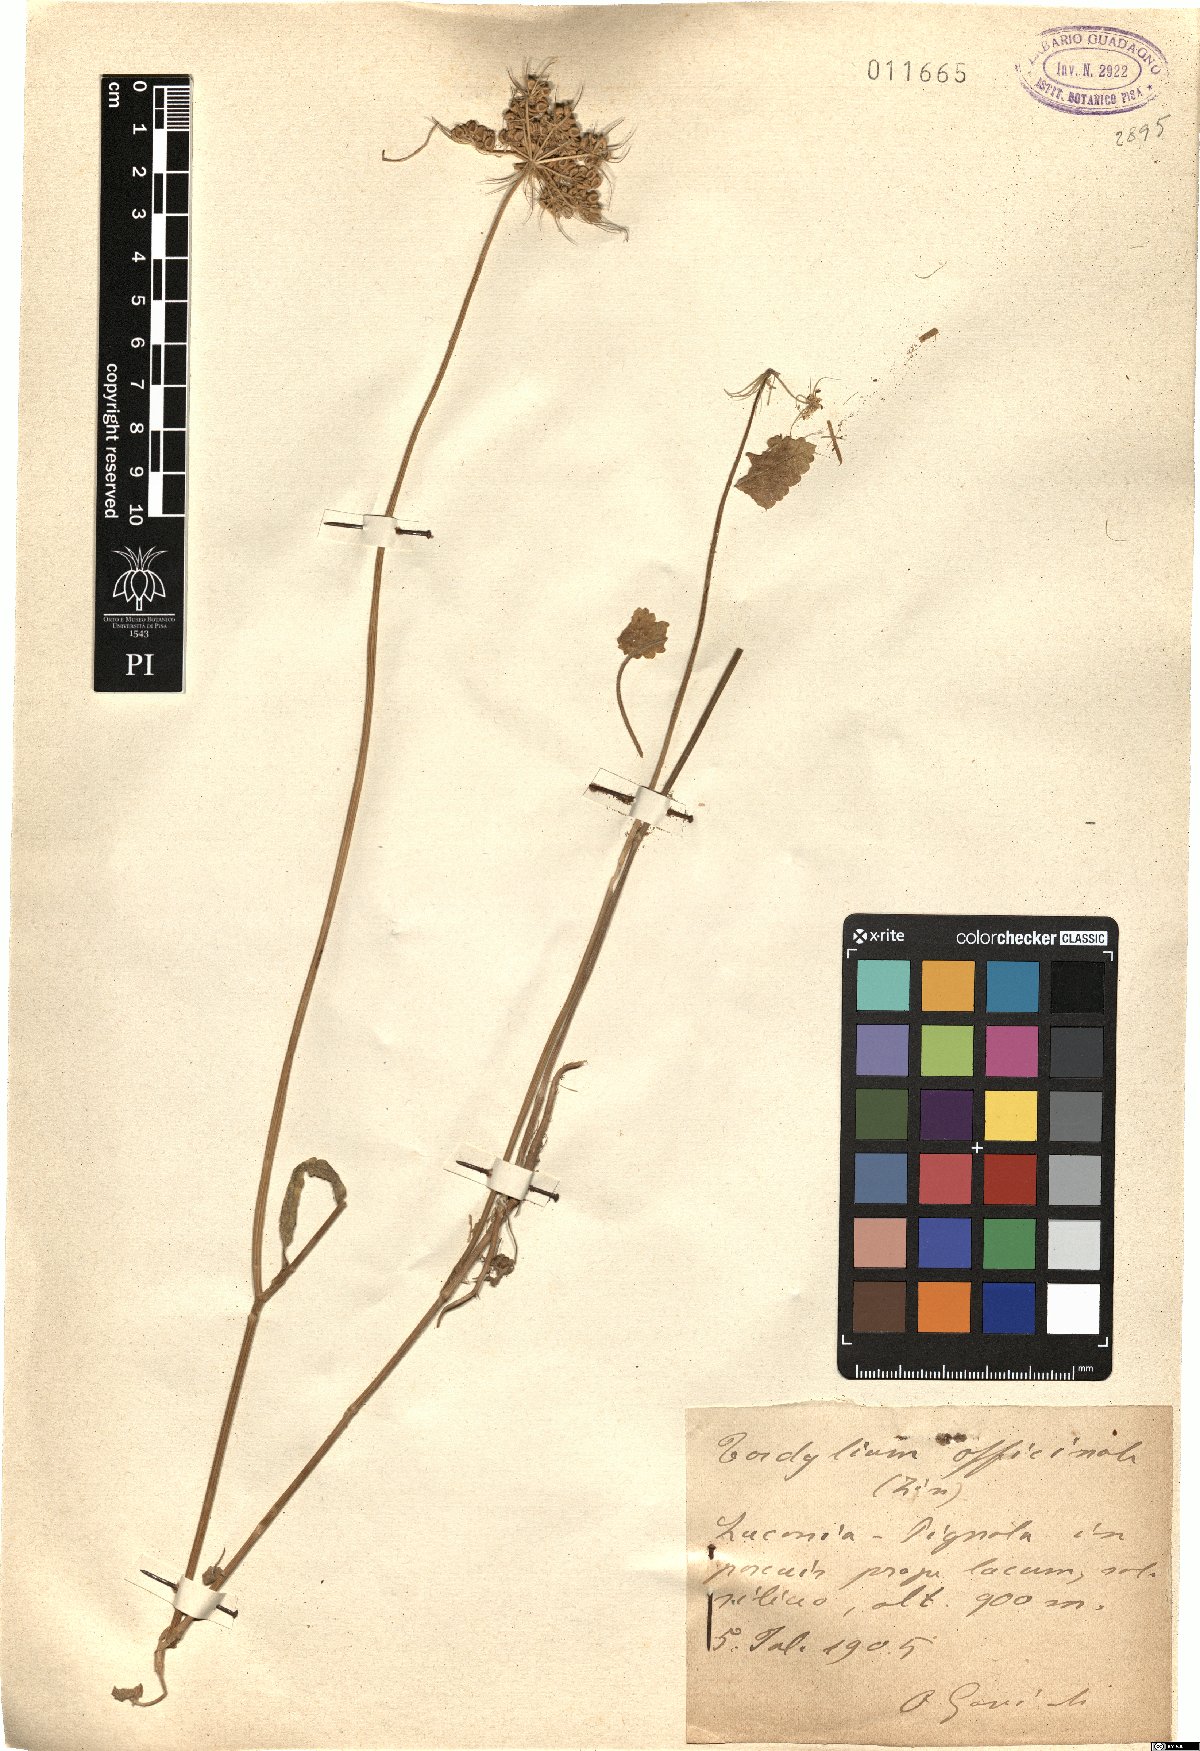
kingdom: Plantae
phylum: Tracheophyta
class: Magnoliopsida
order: Apiales
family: Apiaceae
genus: Tordylium
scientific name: Tordylium officinale
